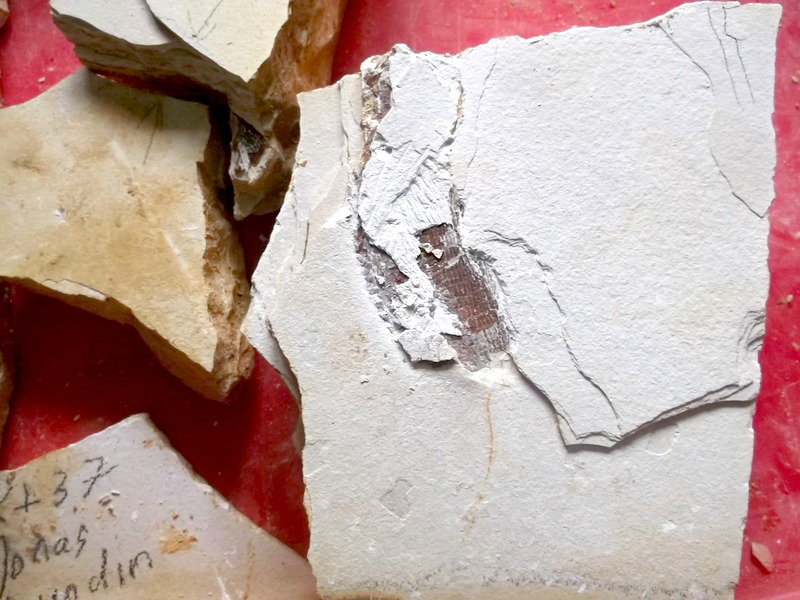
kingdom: Animalia
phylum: Chordata
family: Aspidorhynchidae
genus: Aspidorhynchus
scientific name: Aspidorhynchus sanzenbacheri
